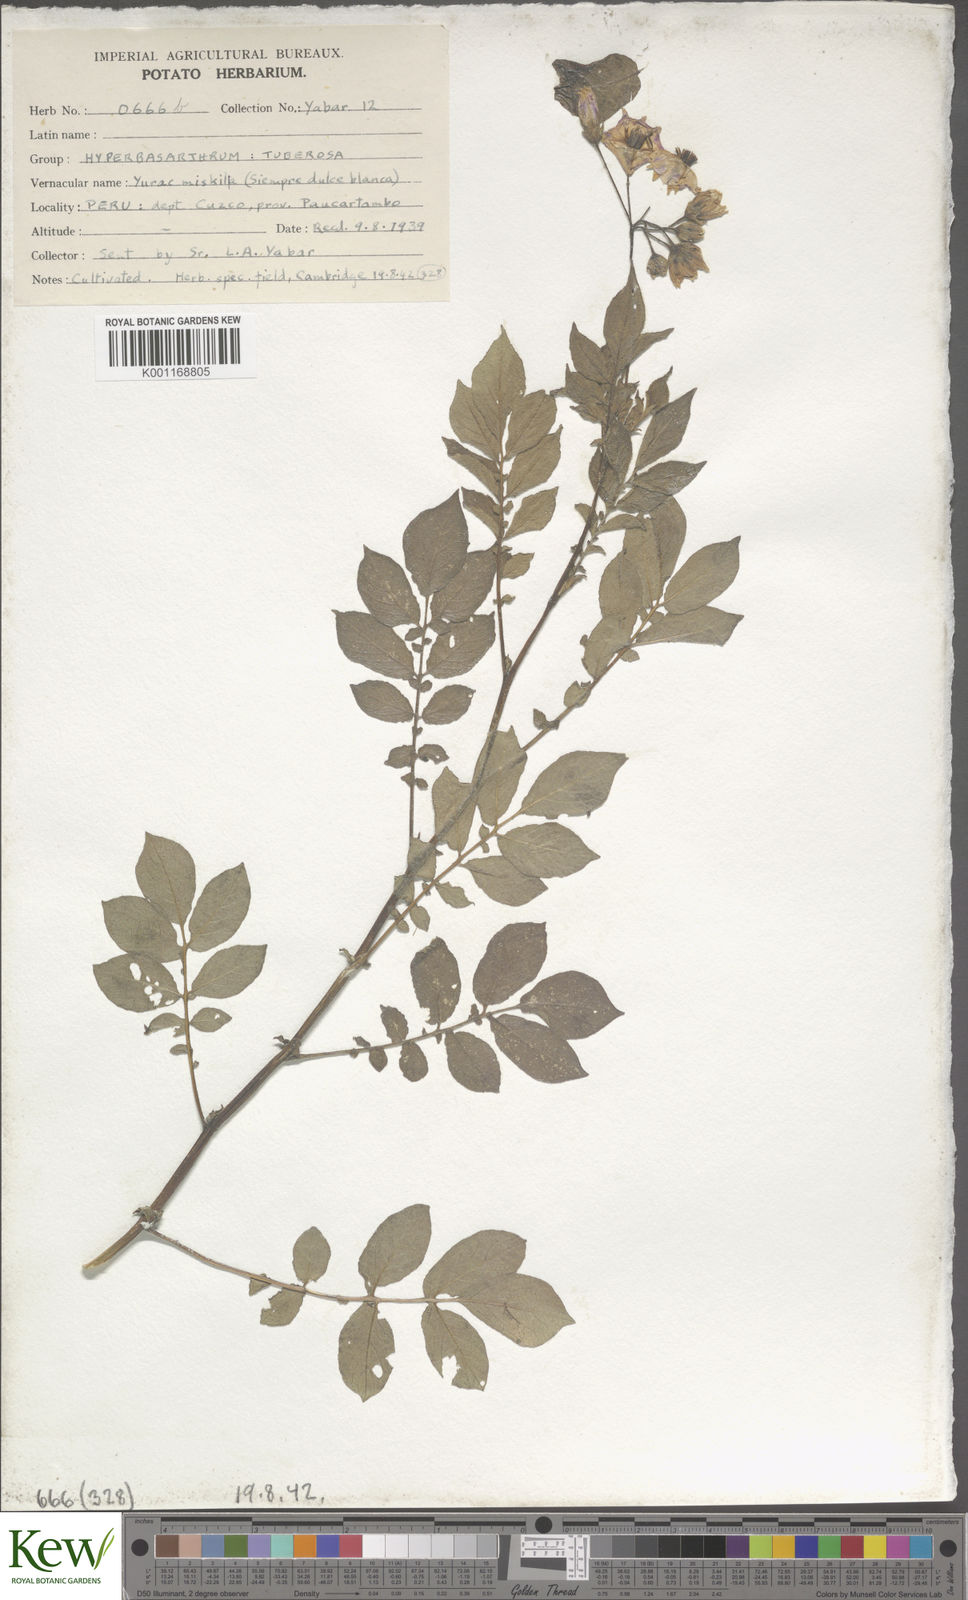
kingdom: Plantae
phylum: Tracheophyta
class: Magnoliopsida
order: Solanales
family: Solanaceae
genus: Solanum
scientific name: Solanum chaucha
